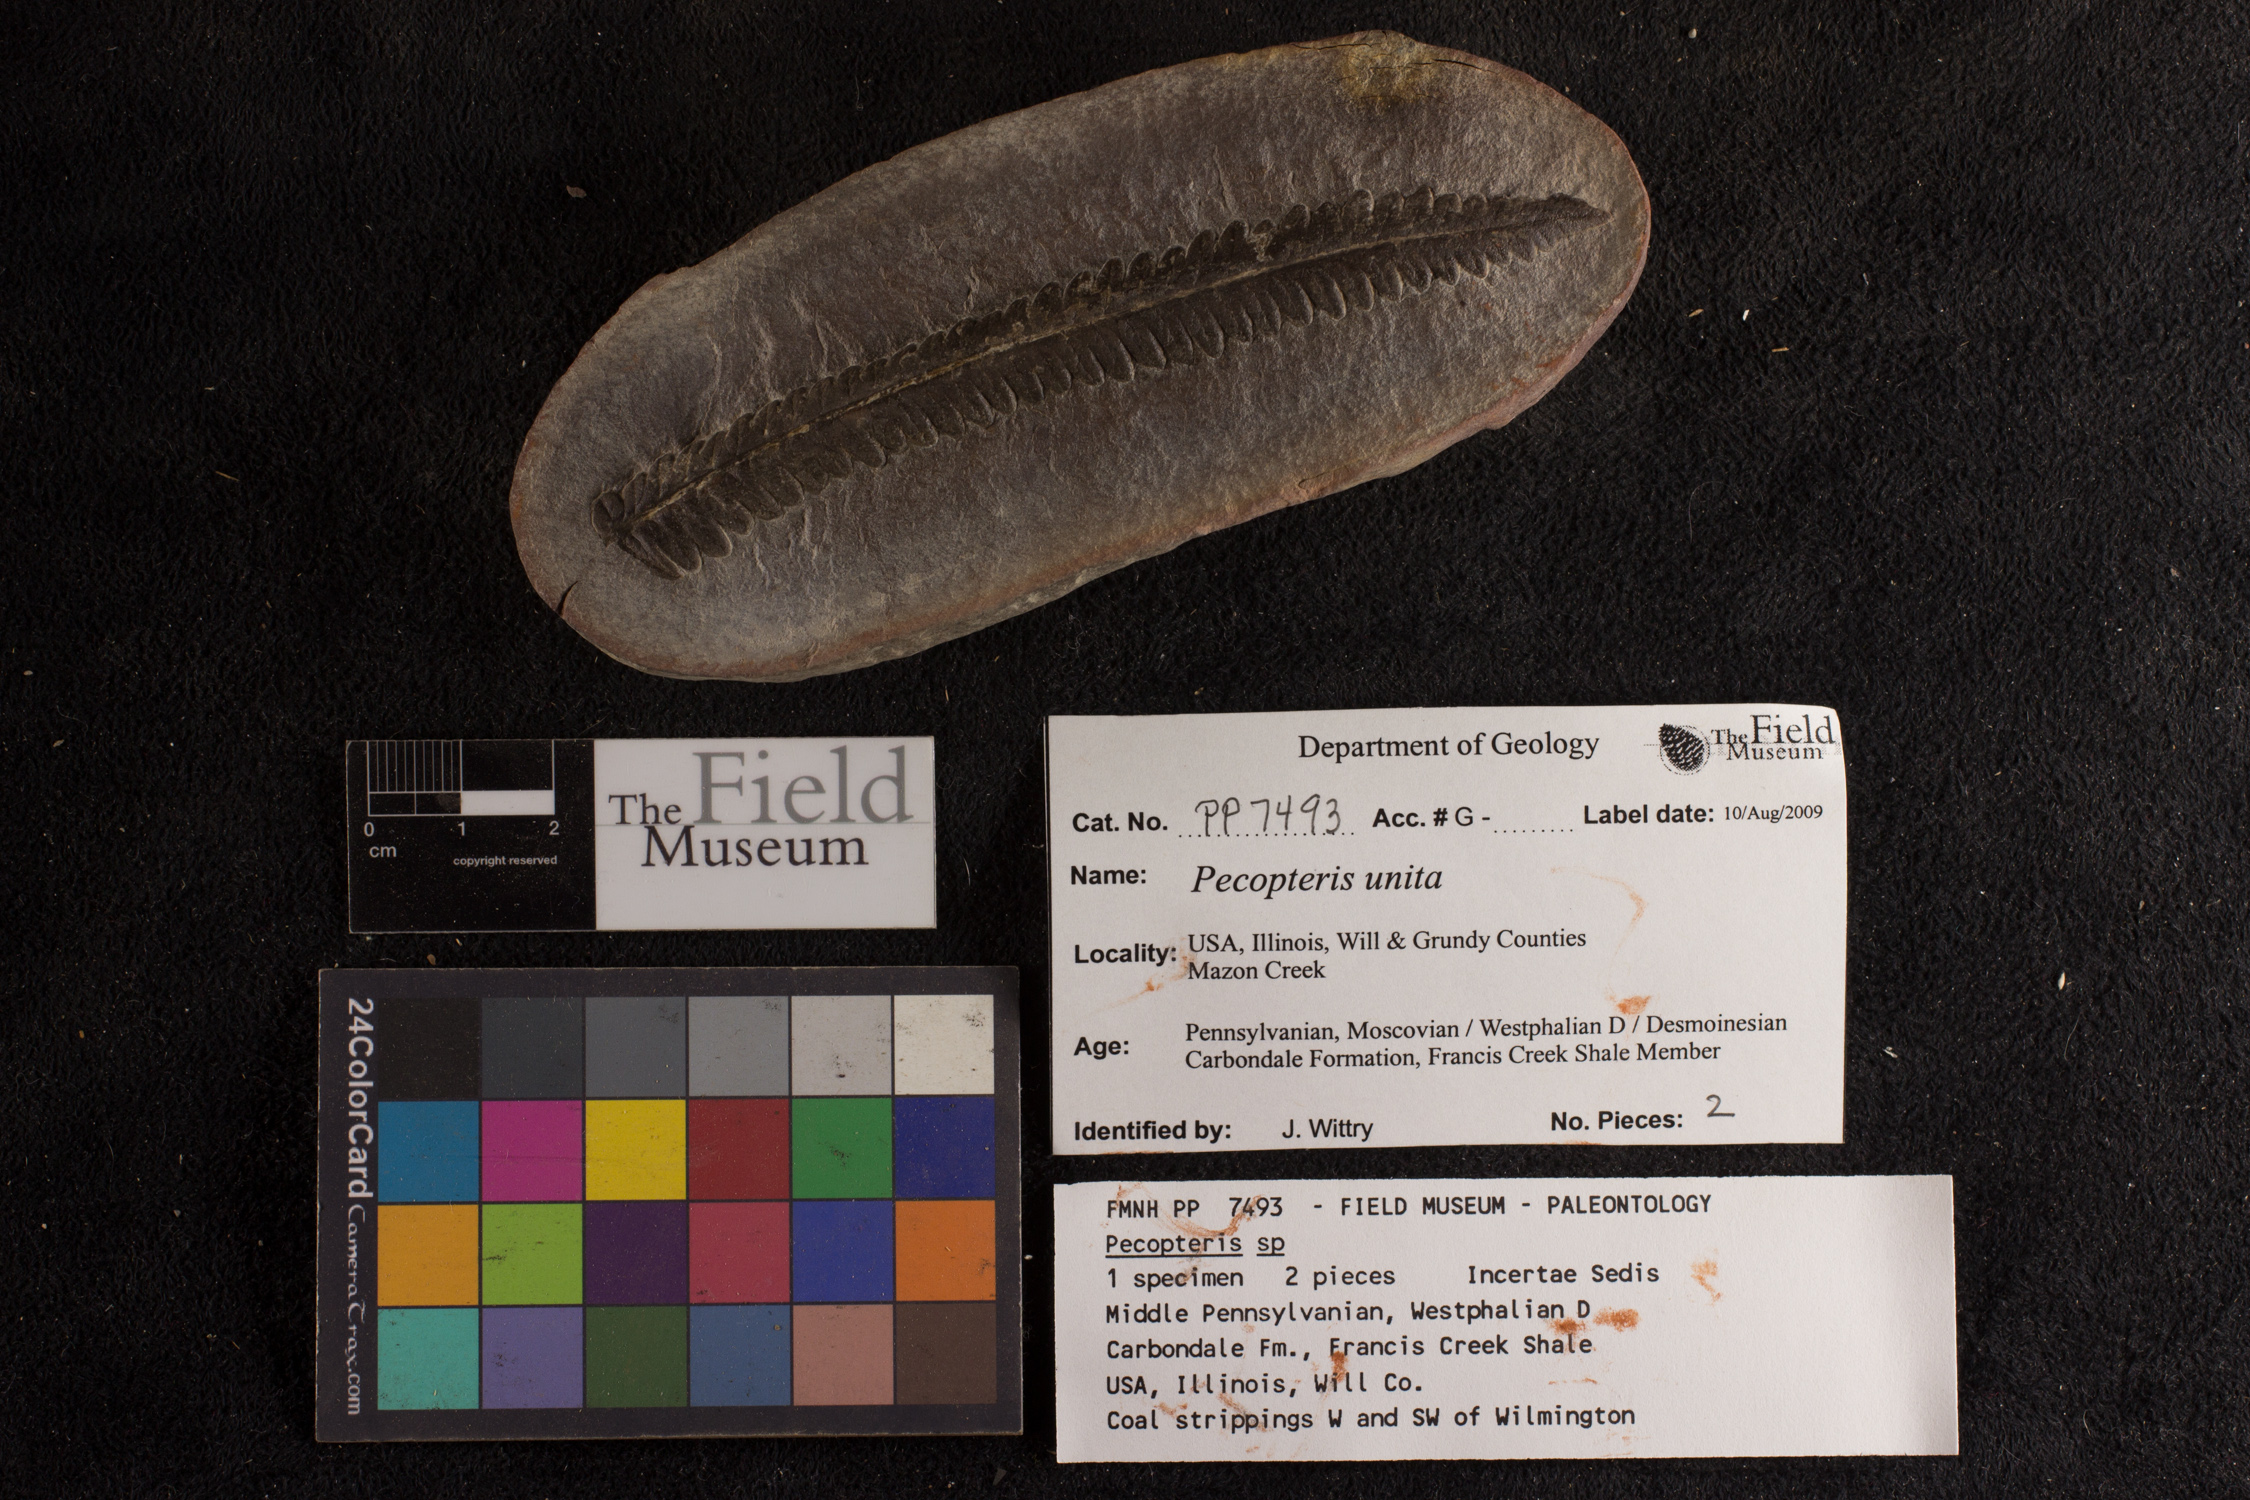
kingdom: Plantae
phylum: Tracheophyta
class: Polypodiopsida
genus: Diplazites
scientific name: Diplazites
